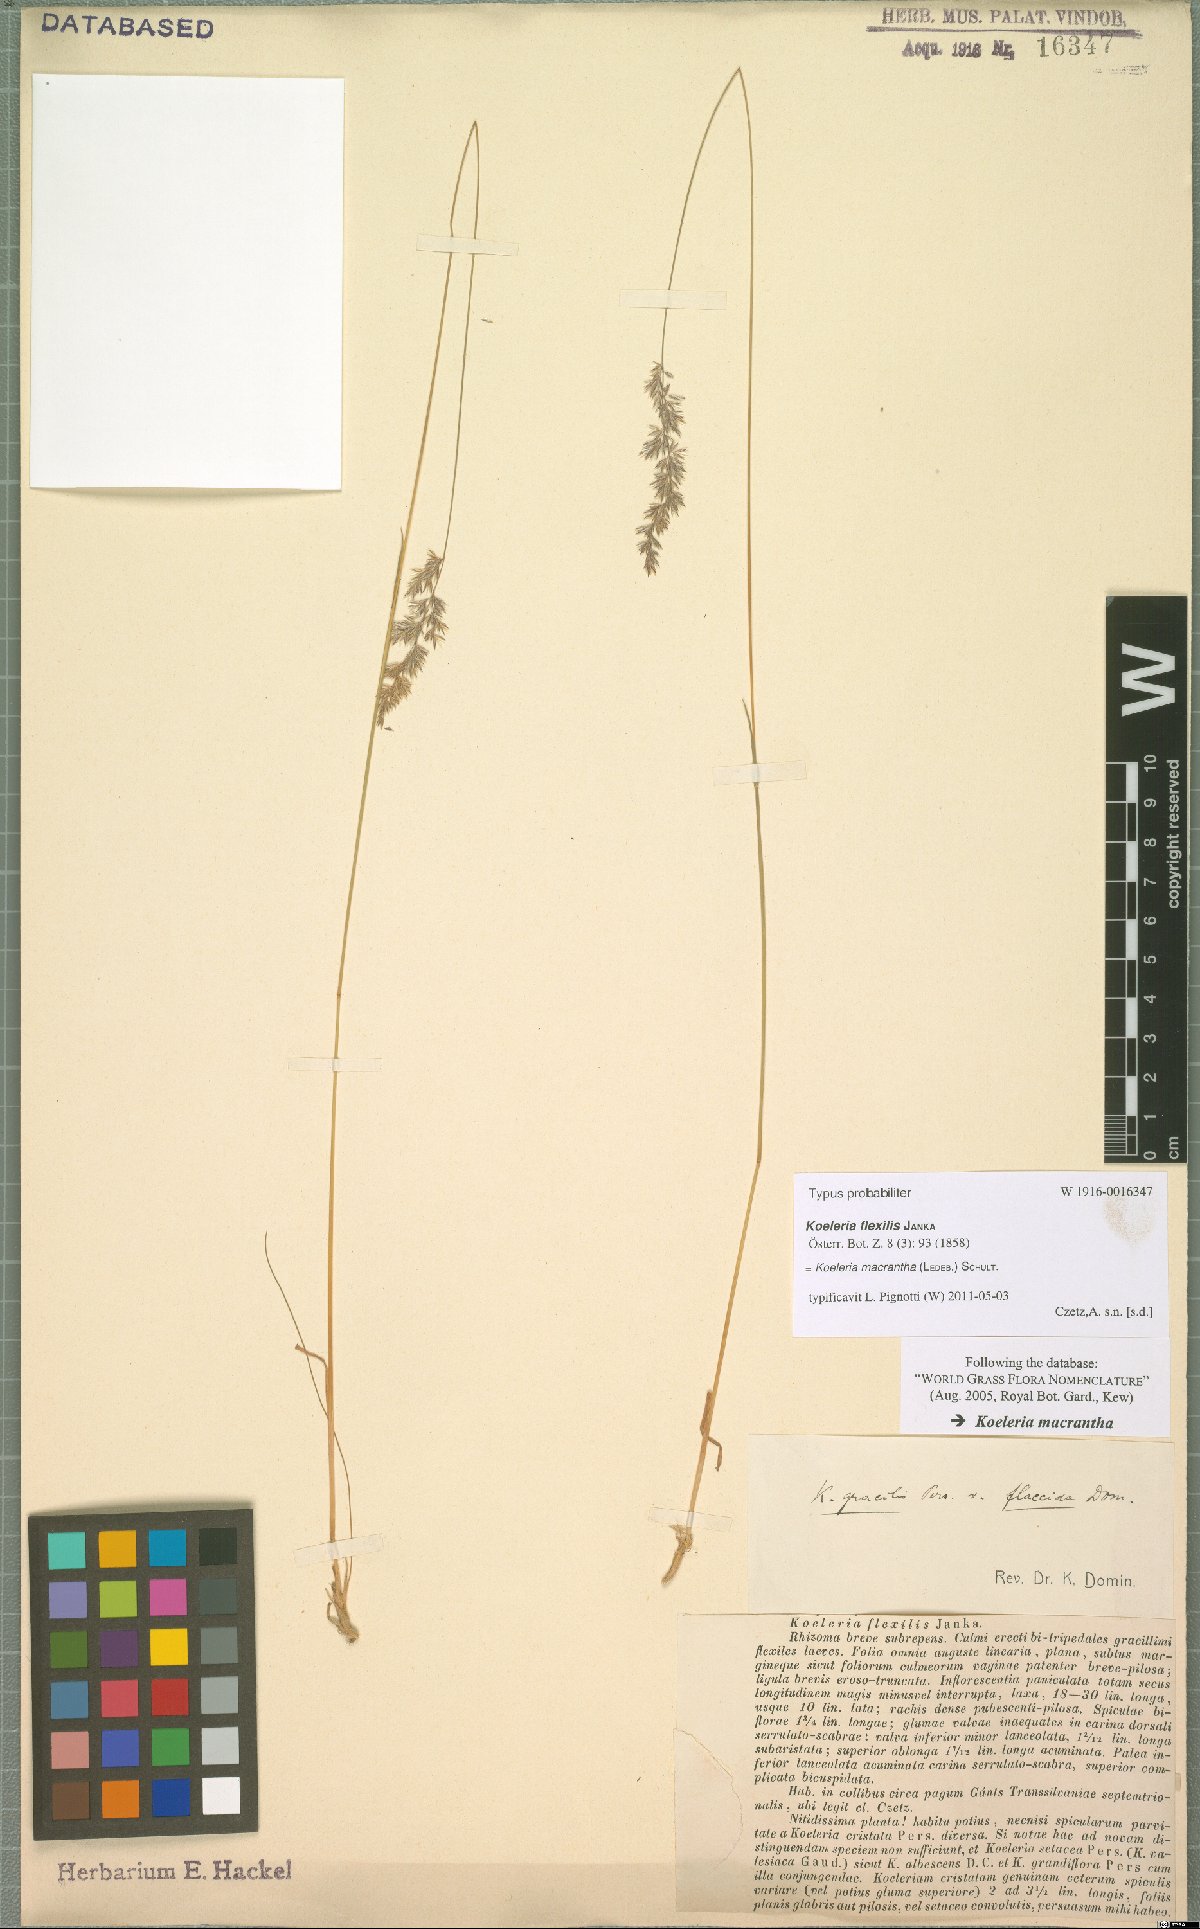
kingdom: Plantae
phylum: Tracheophyta
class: Liliopsida
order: Poales
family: Poaceae
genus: Koeleria
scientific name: Koeleria macrantha
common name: Crested hair-grass
